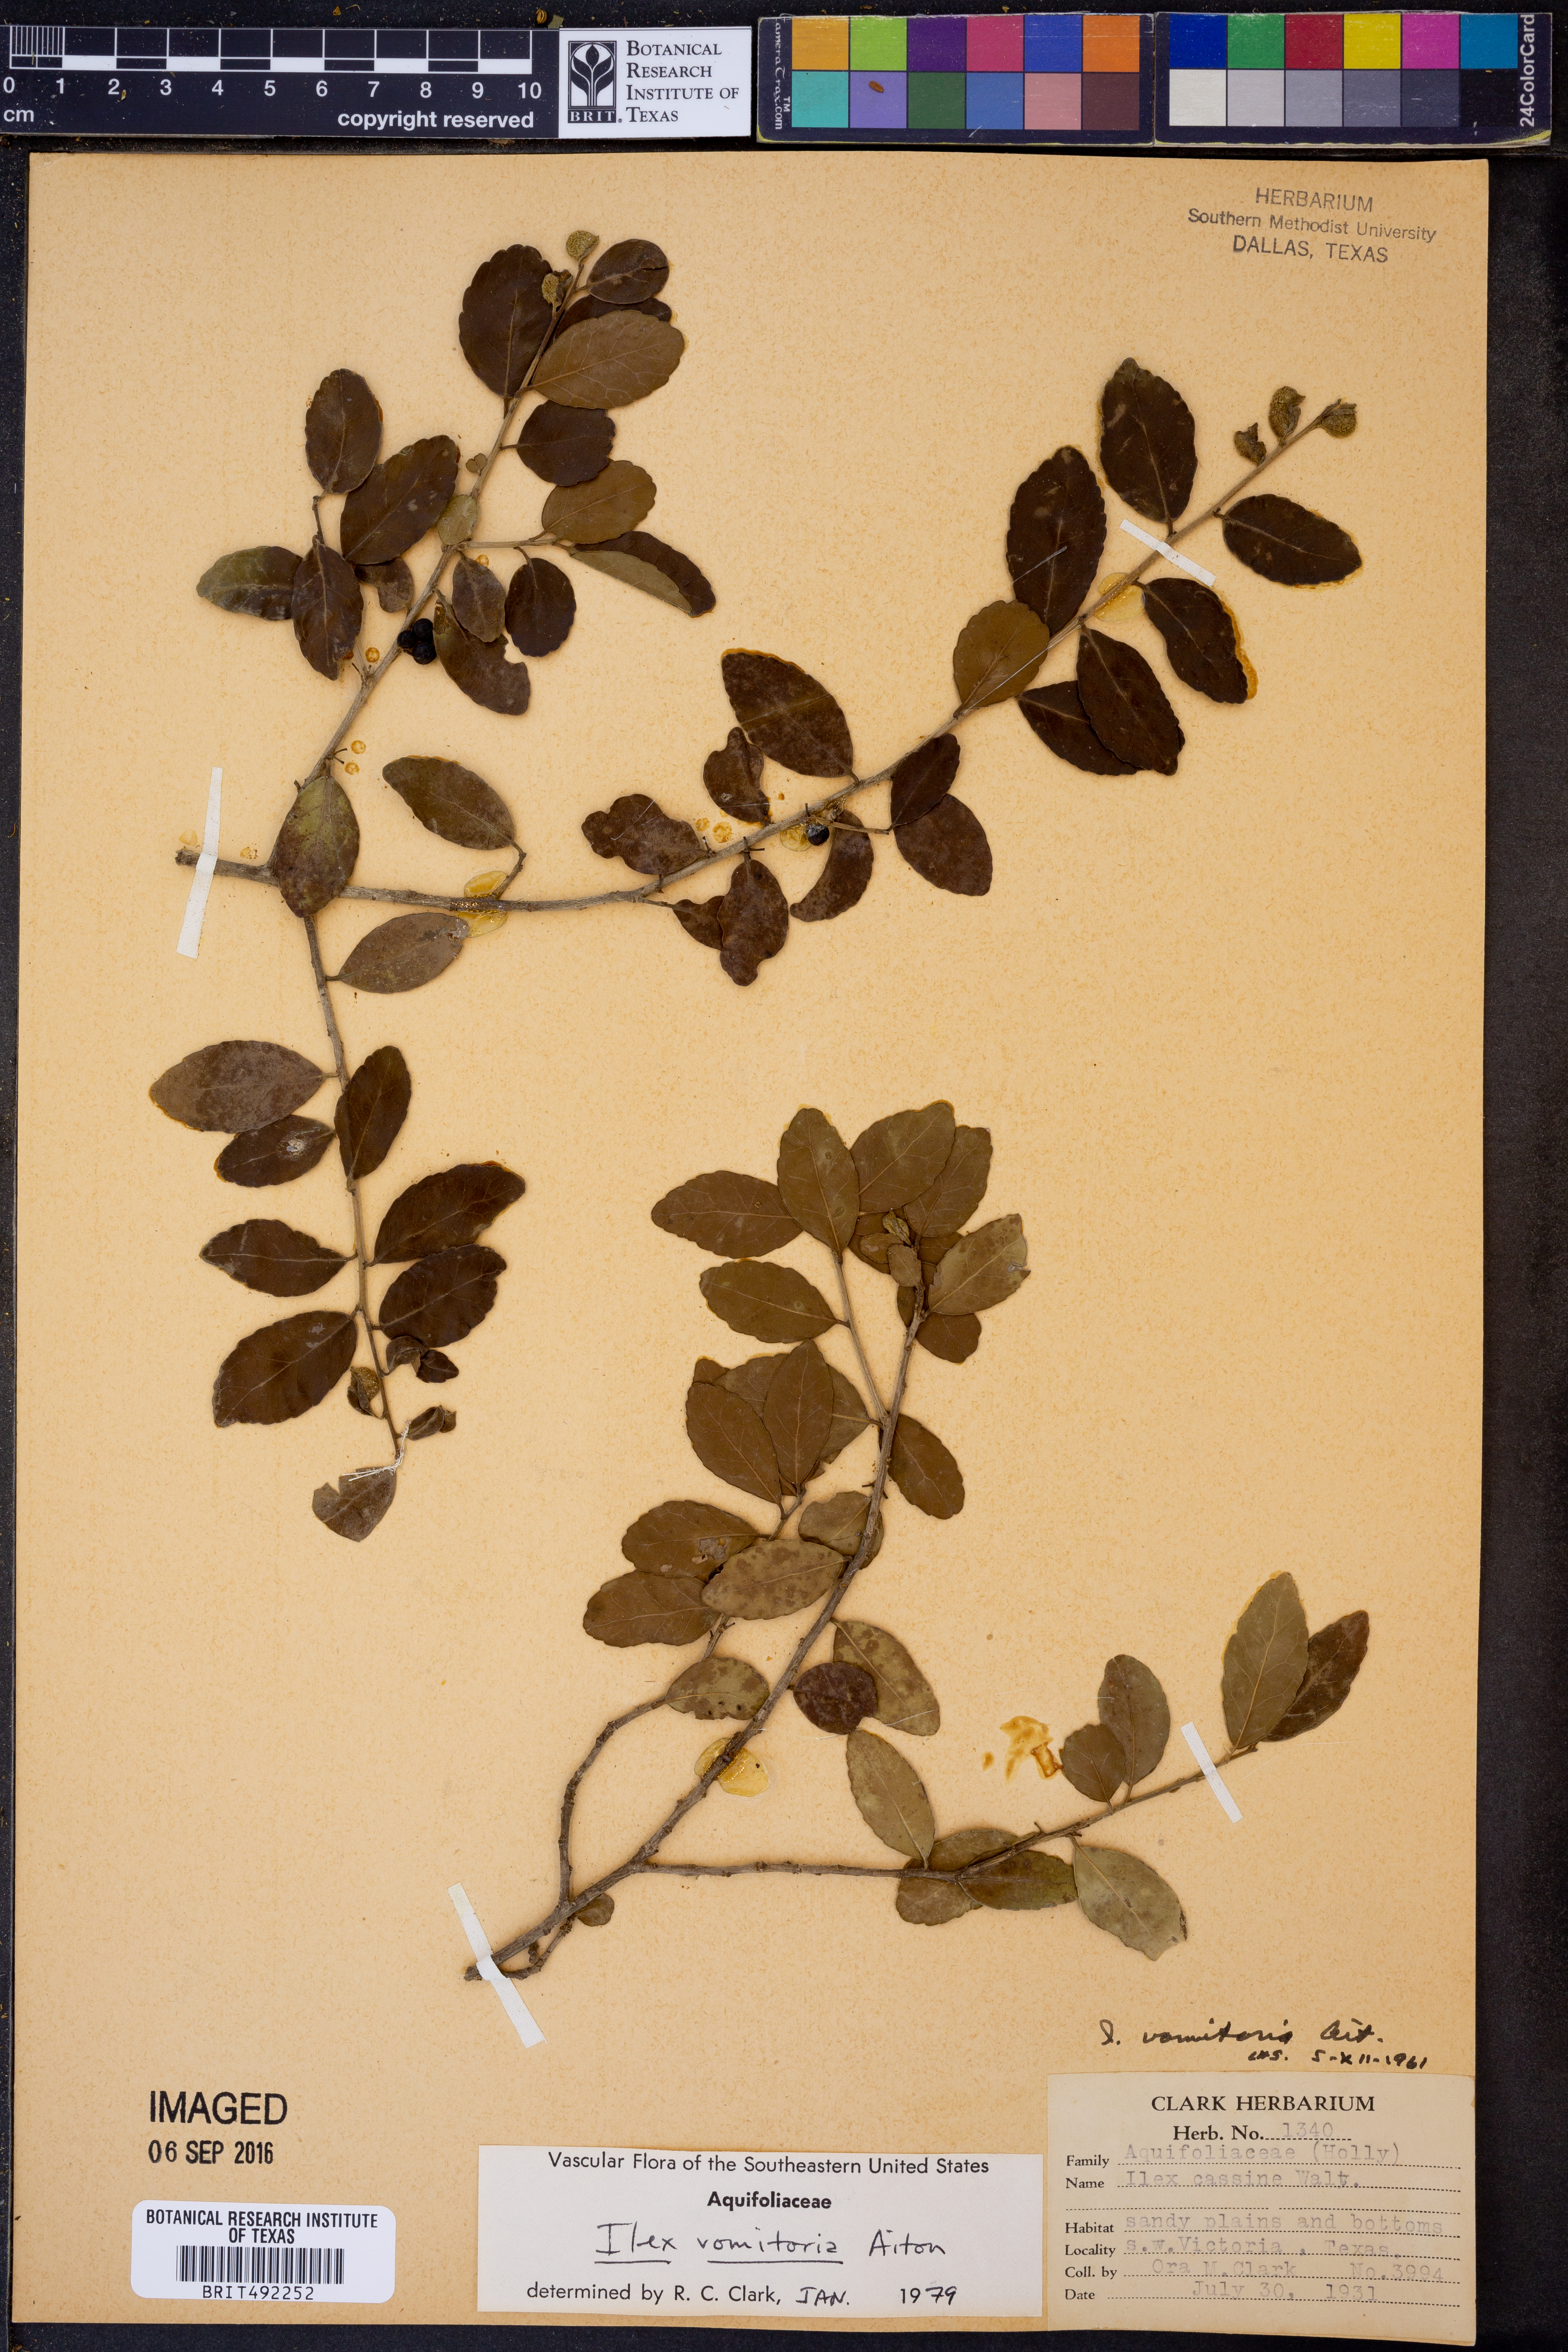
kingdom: Plantae
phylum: Tracheophyta
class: Magnoliopsida
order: Aquifoliales
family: Aquifoliaceae
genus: Ilex
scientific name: Ilex vomitoria
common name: Yaupon holly
